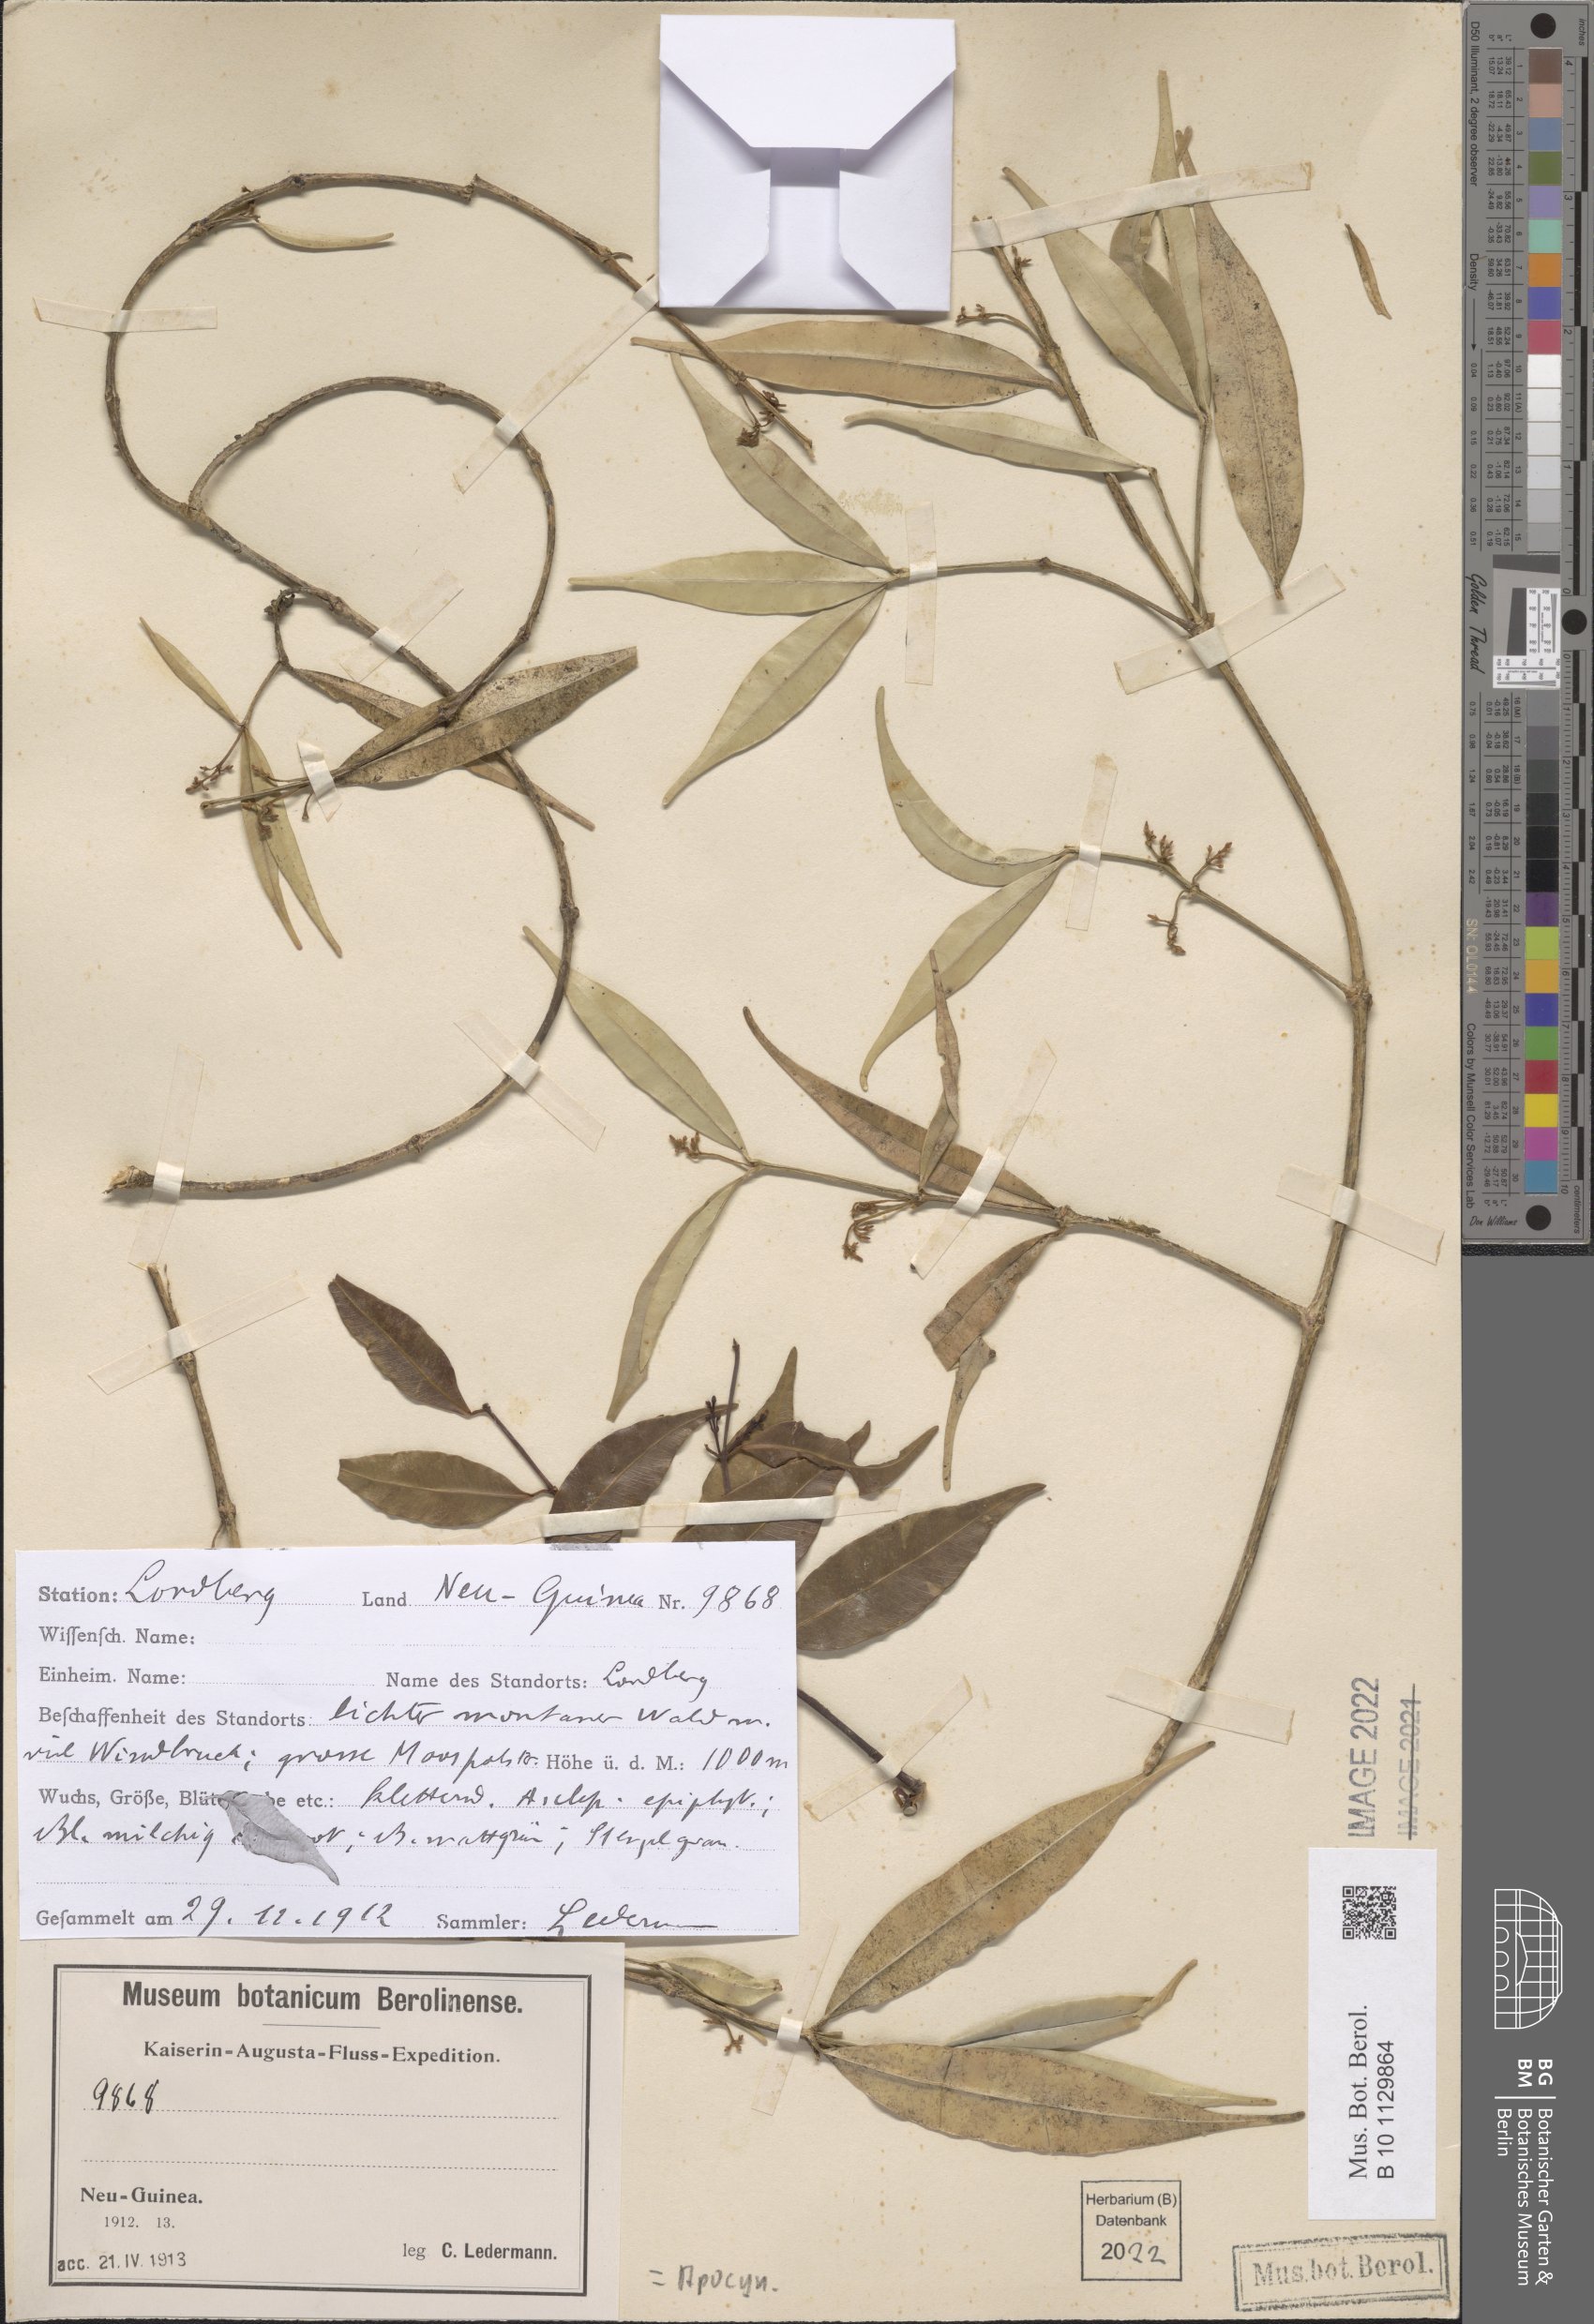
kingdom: Plantae
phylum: Tracheophyta
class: Magnoliopsida
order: Gentianales
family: Apocynaceae
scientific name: Apocynaceae
